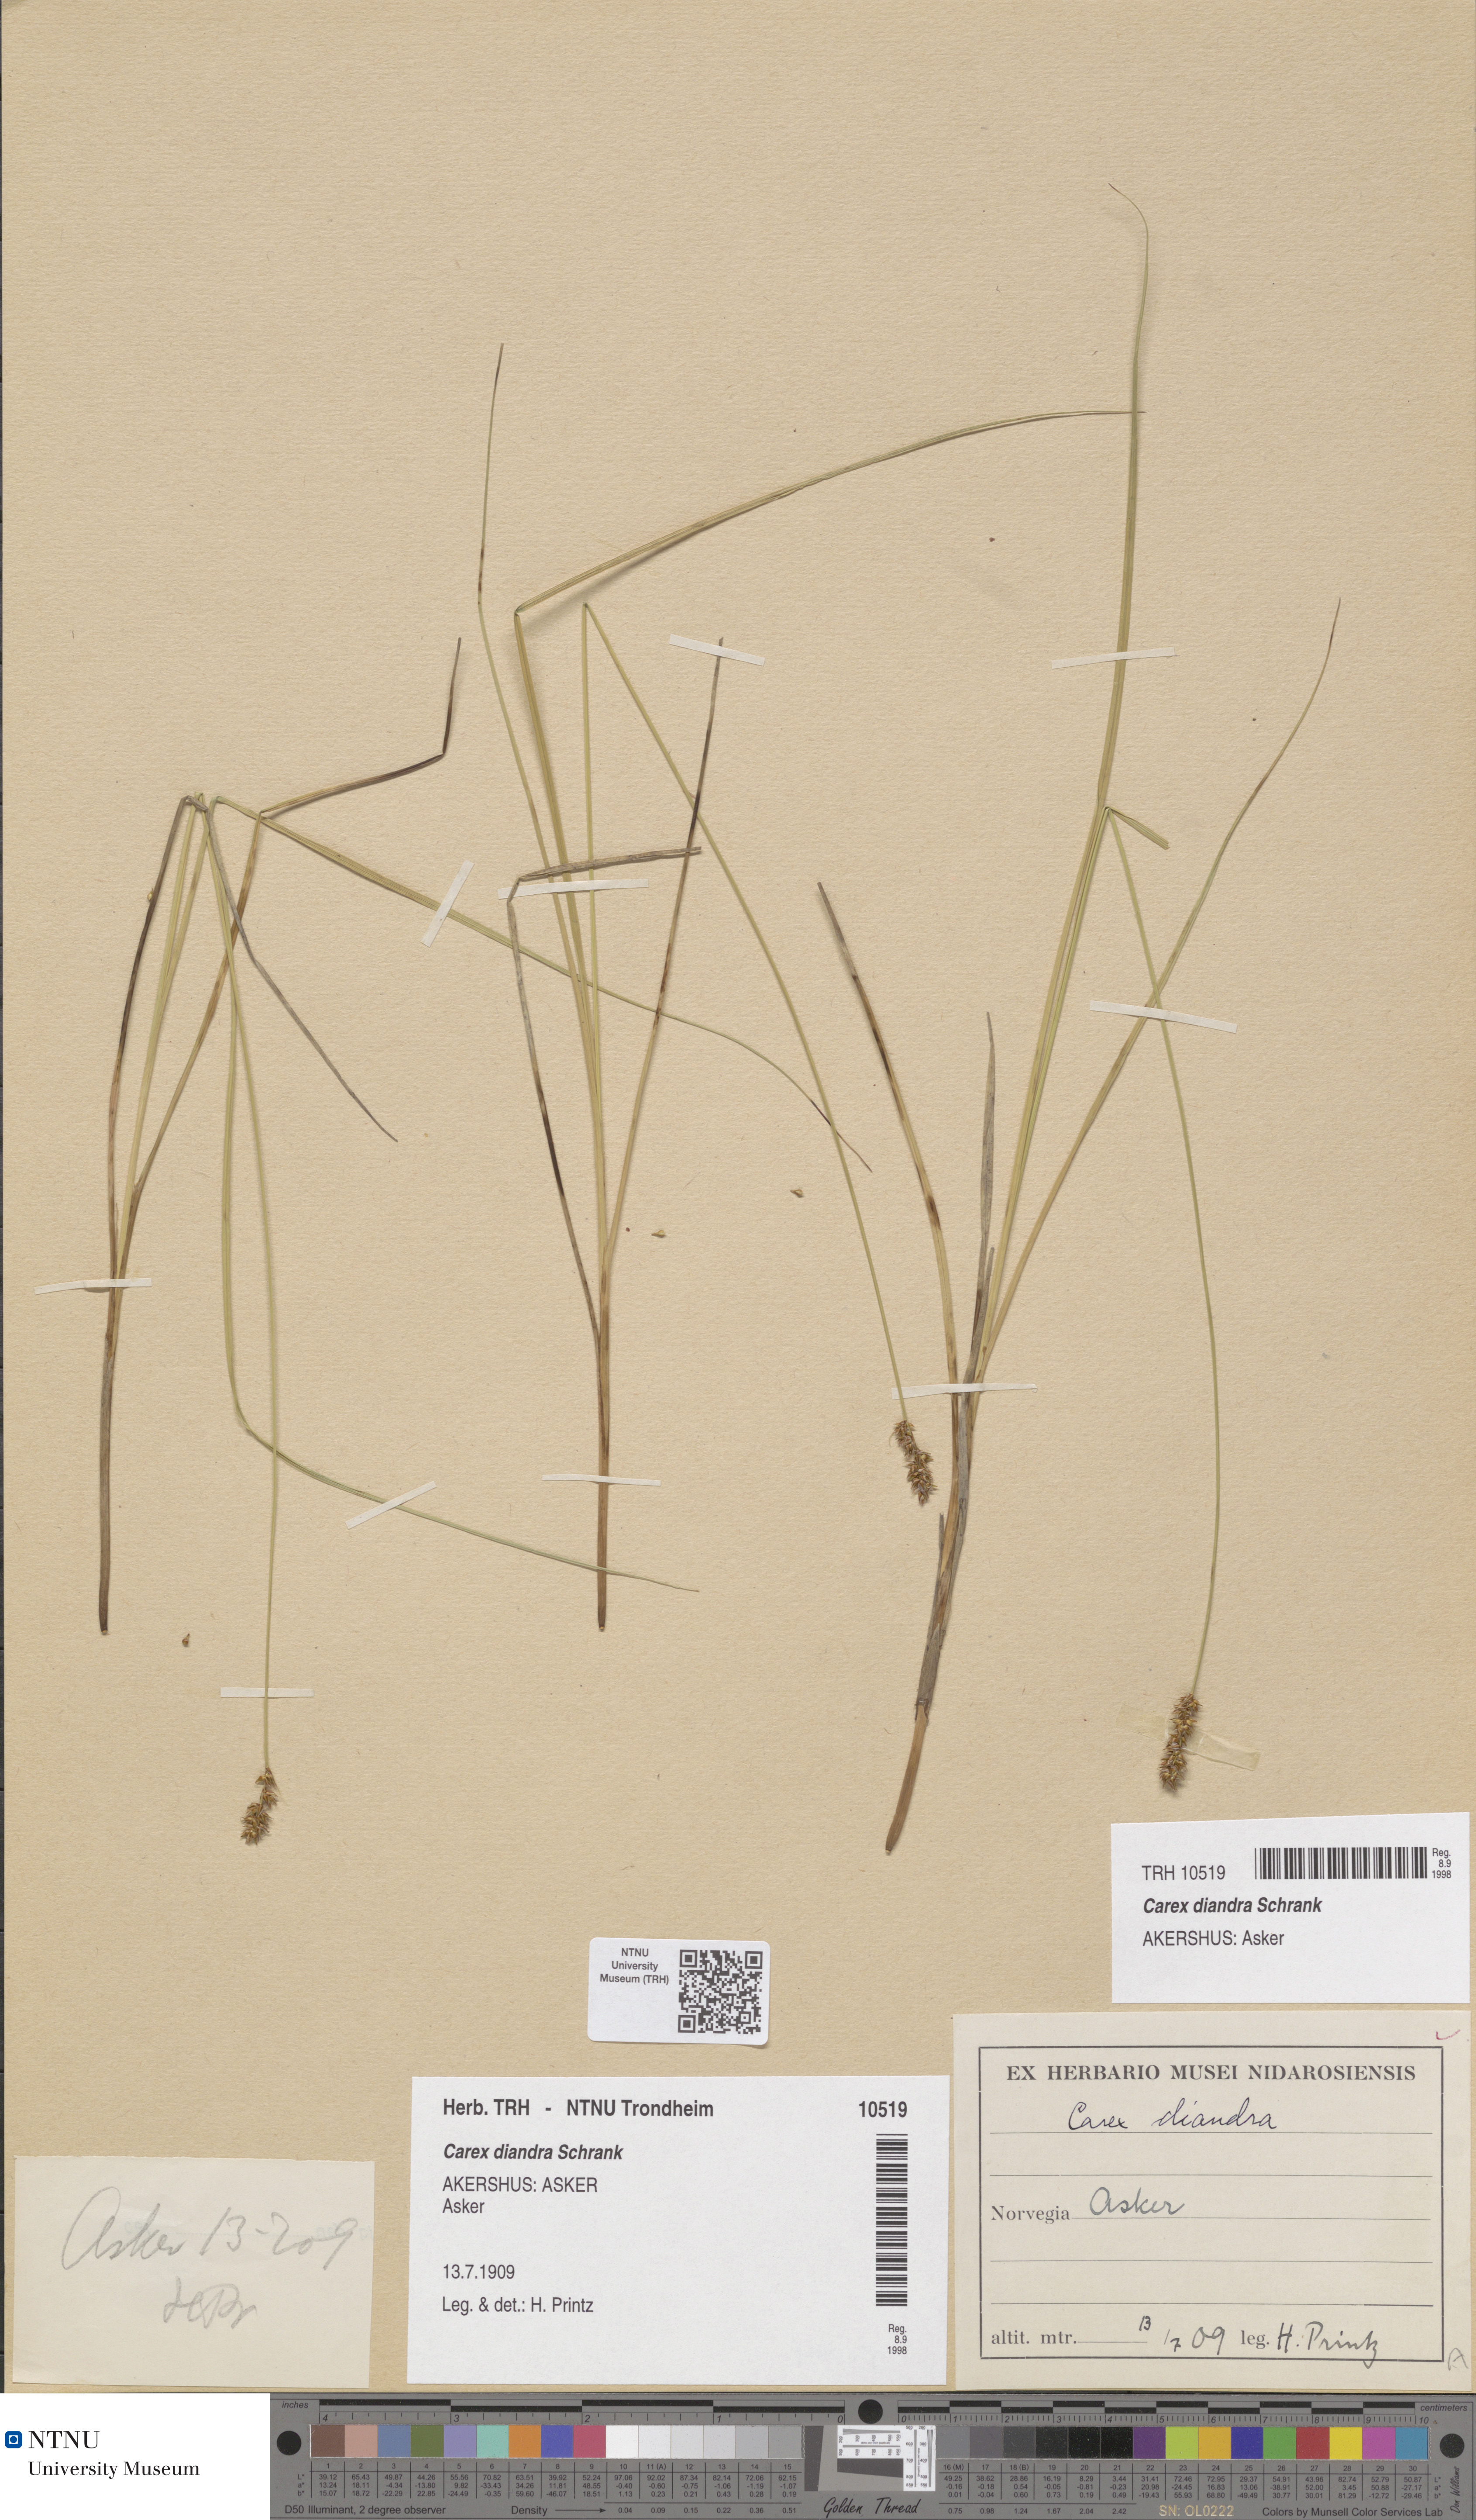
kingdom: Plantae
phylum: Tracheophyta
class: Liliopsida
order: Poales
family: Cyperaceae
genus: Carex
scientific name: Carex diandra
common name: Lesser tussock-sedge
